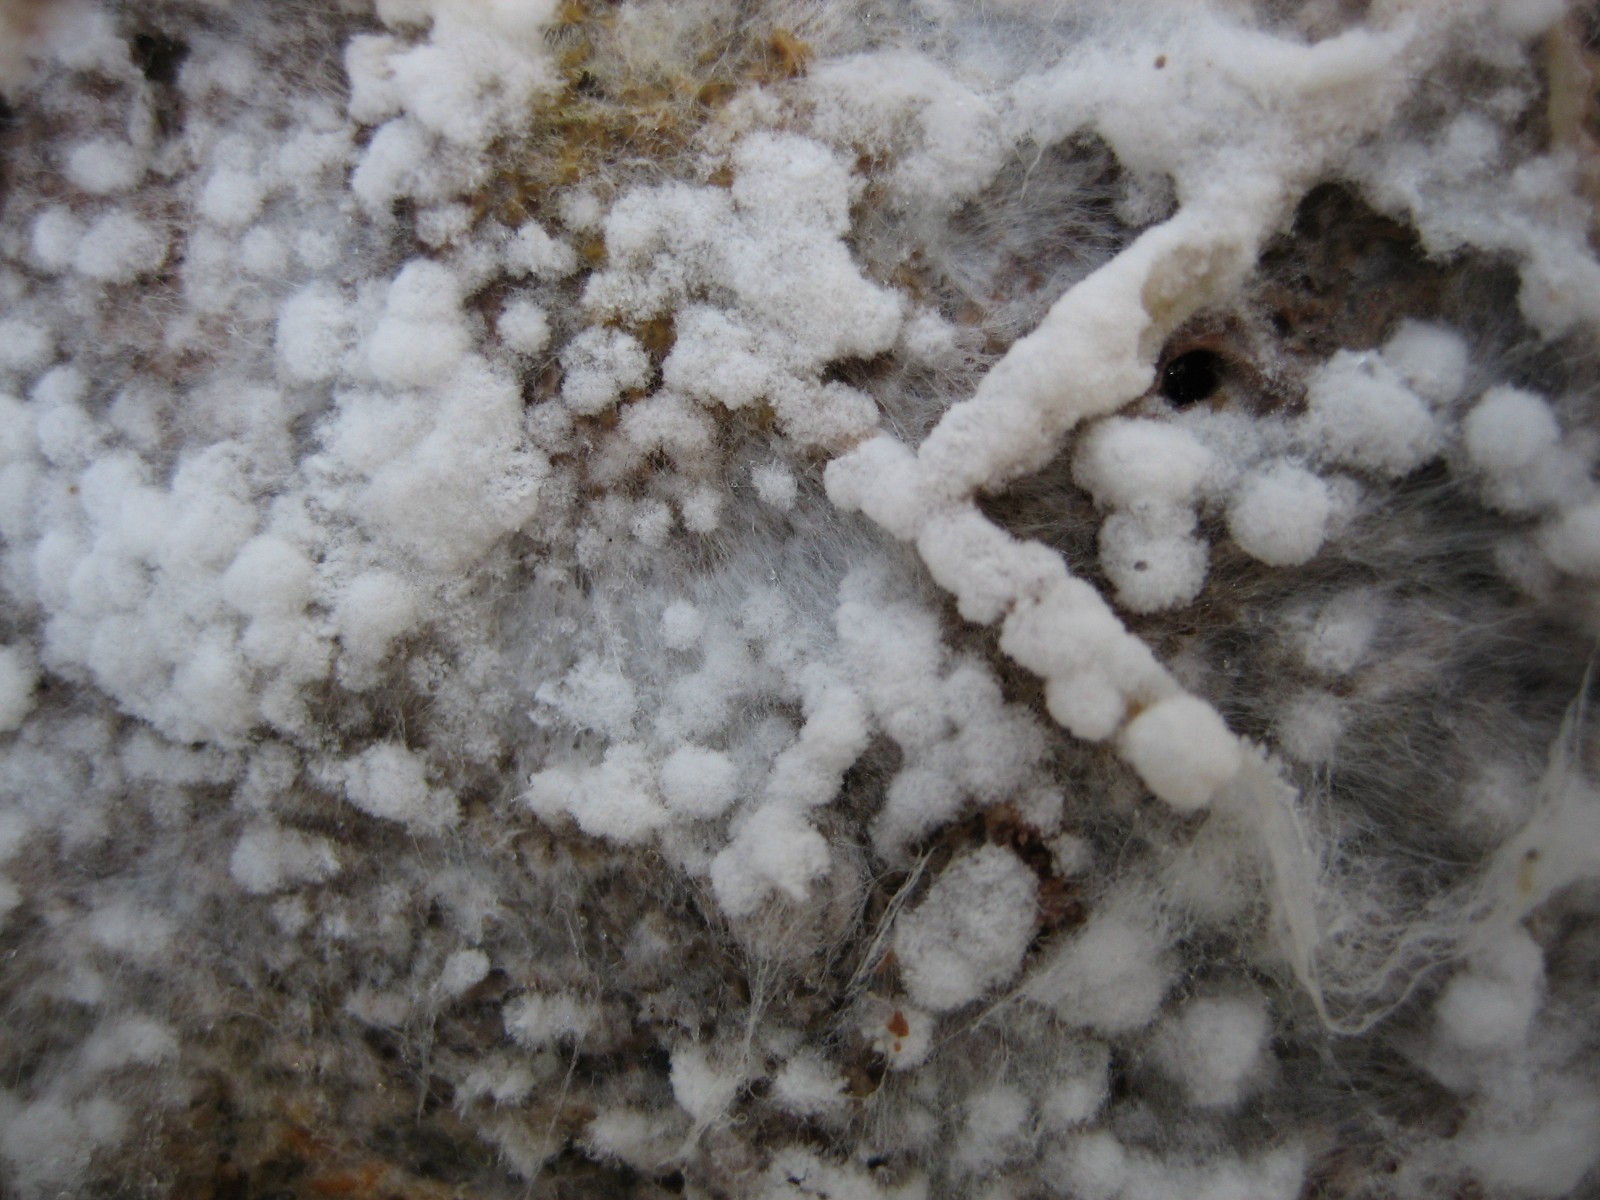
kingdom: Fungi
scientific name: Fungi
